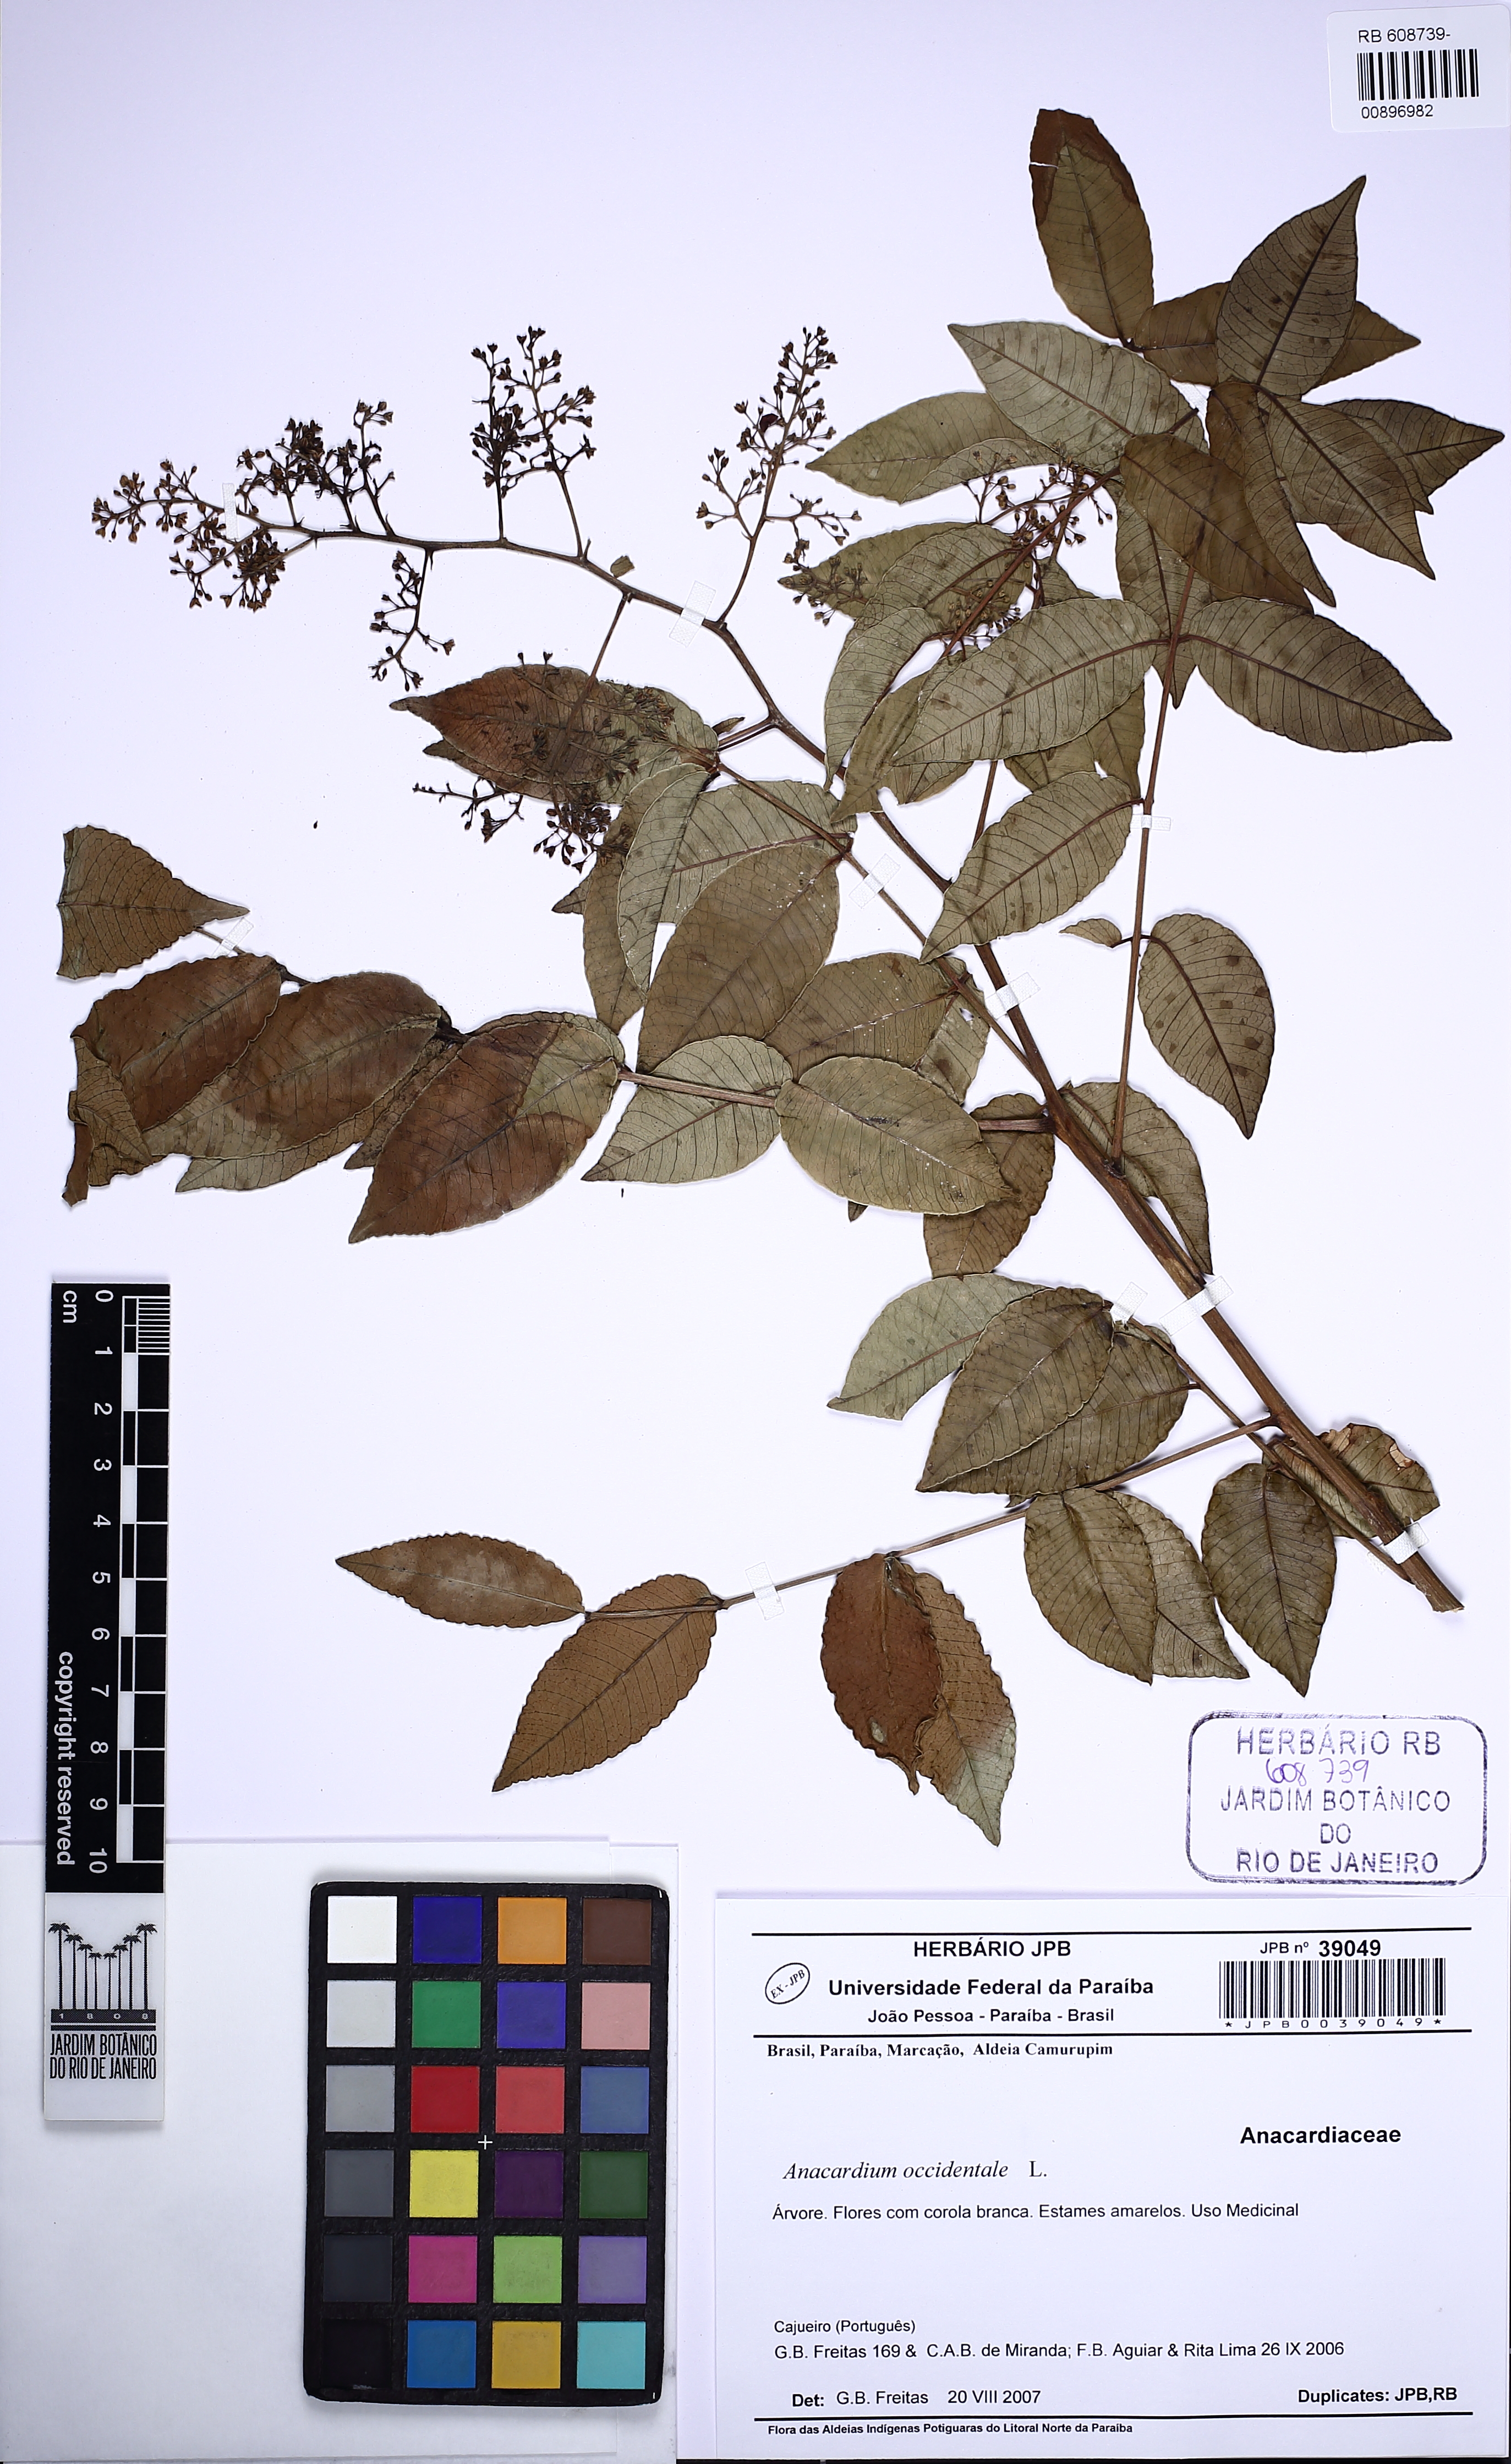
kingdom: Plantae
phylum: Tracheophyta
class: Magnoliopsida
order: Sapindales
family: Anacardiaceae
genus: Anacardium
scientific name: Anacardium occidentale
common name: Cashew
